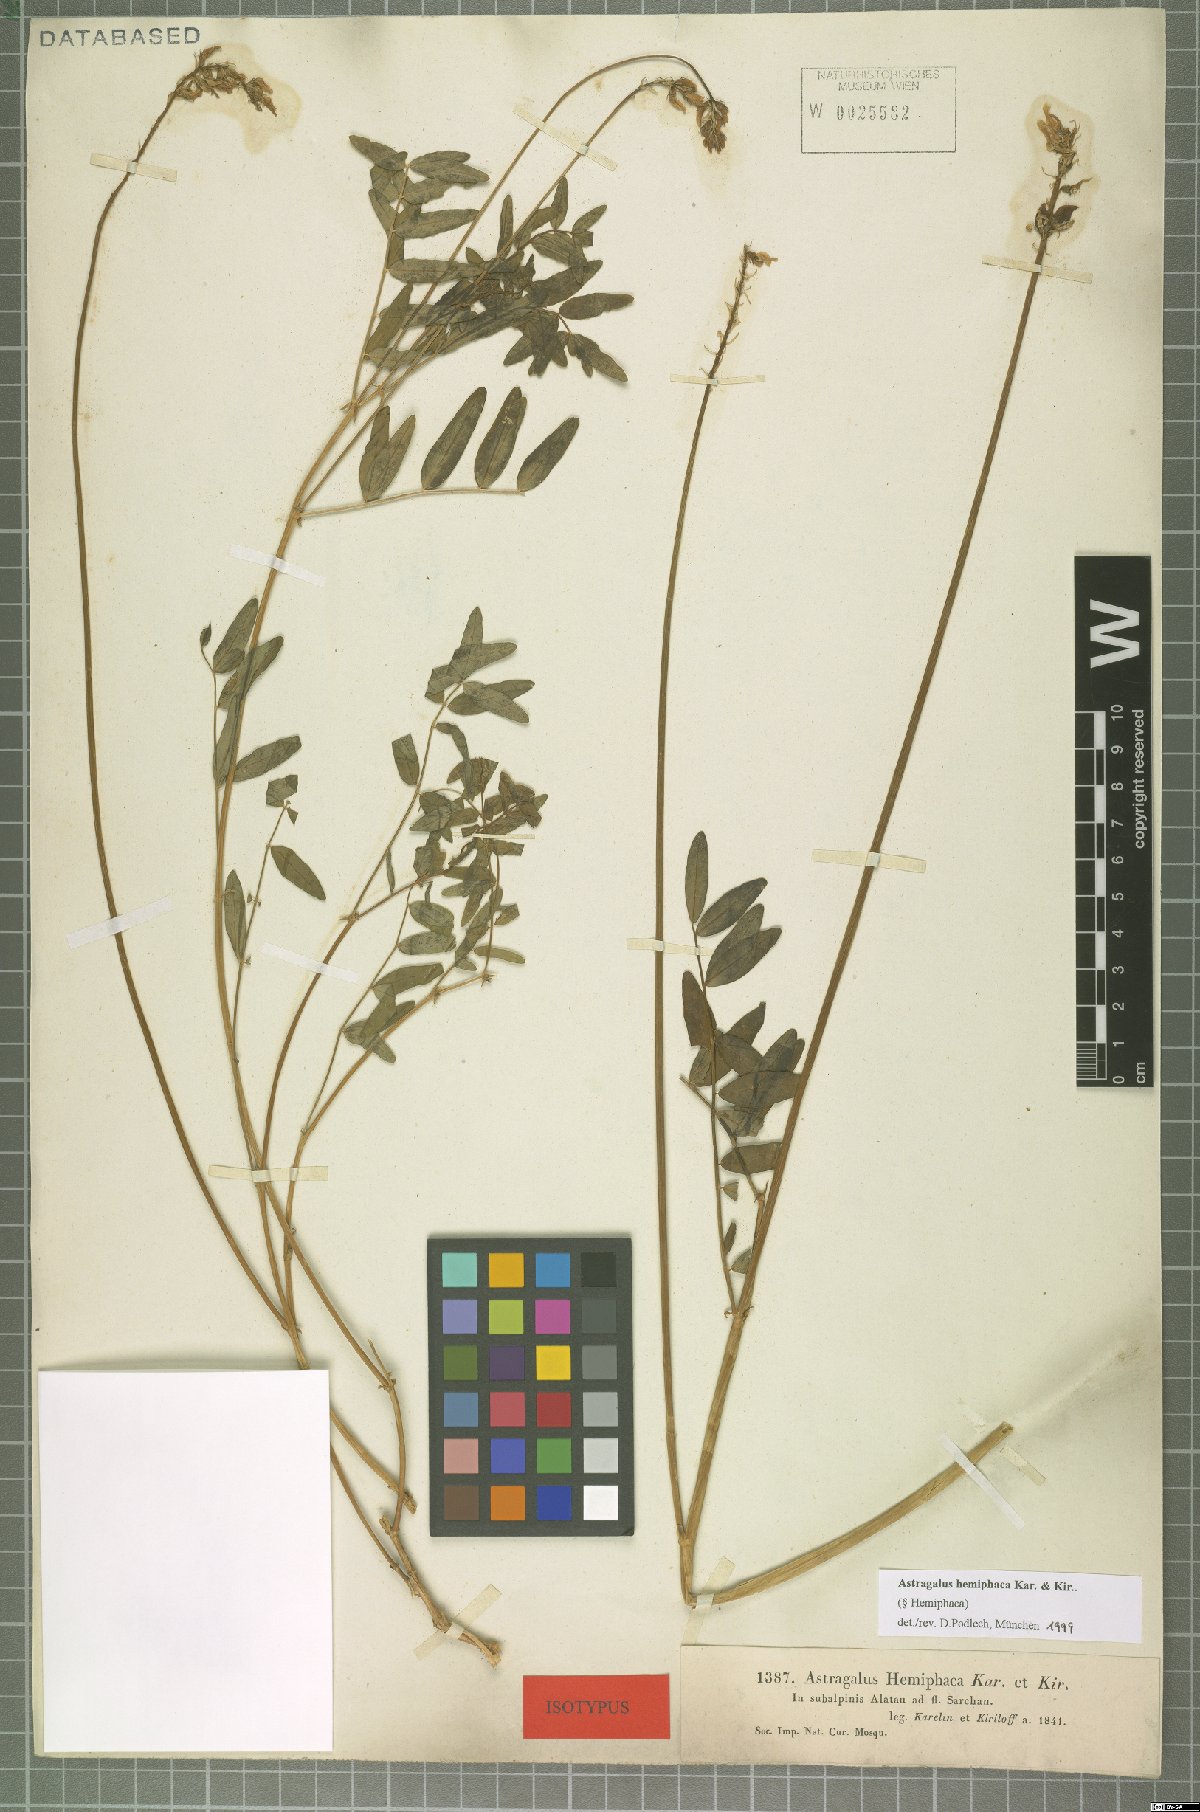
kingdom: Plantae
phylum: Tracheophyta
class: Magnoliopsida
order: Fabales
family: Fabaceae
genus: Astragalus
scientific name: Astragalus hemiphaca
